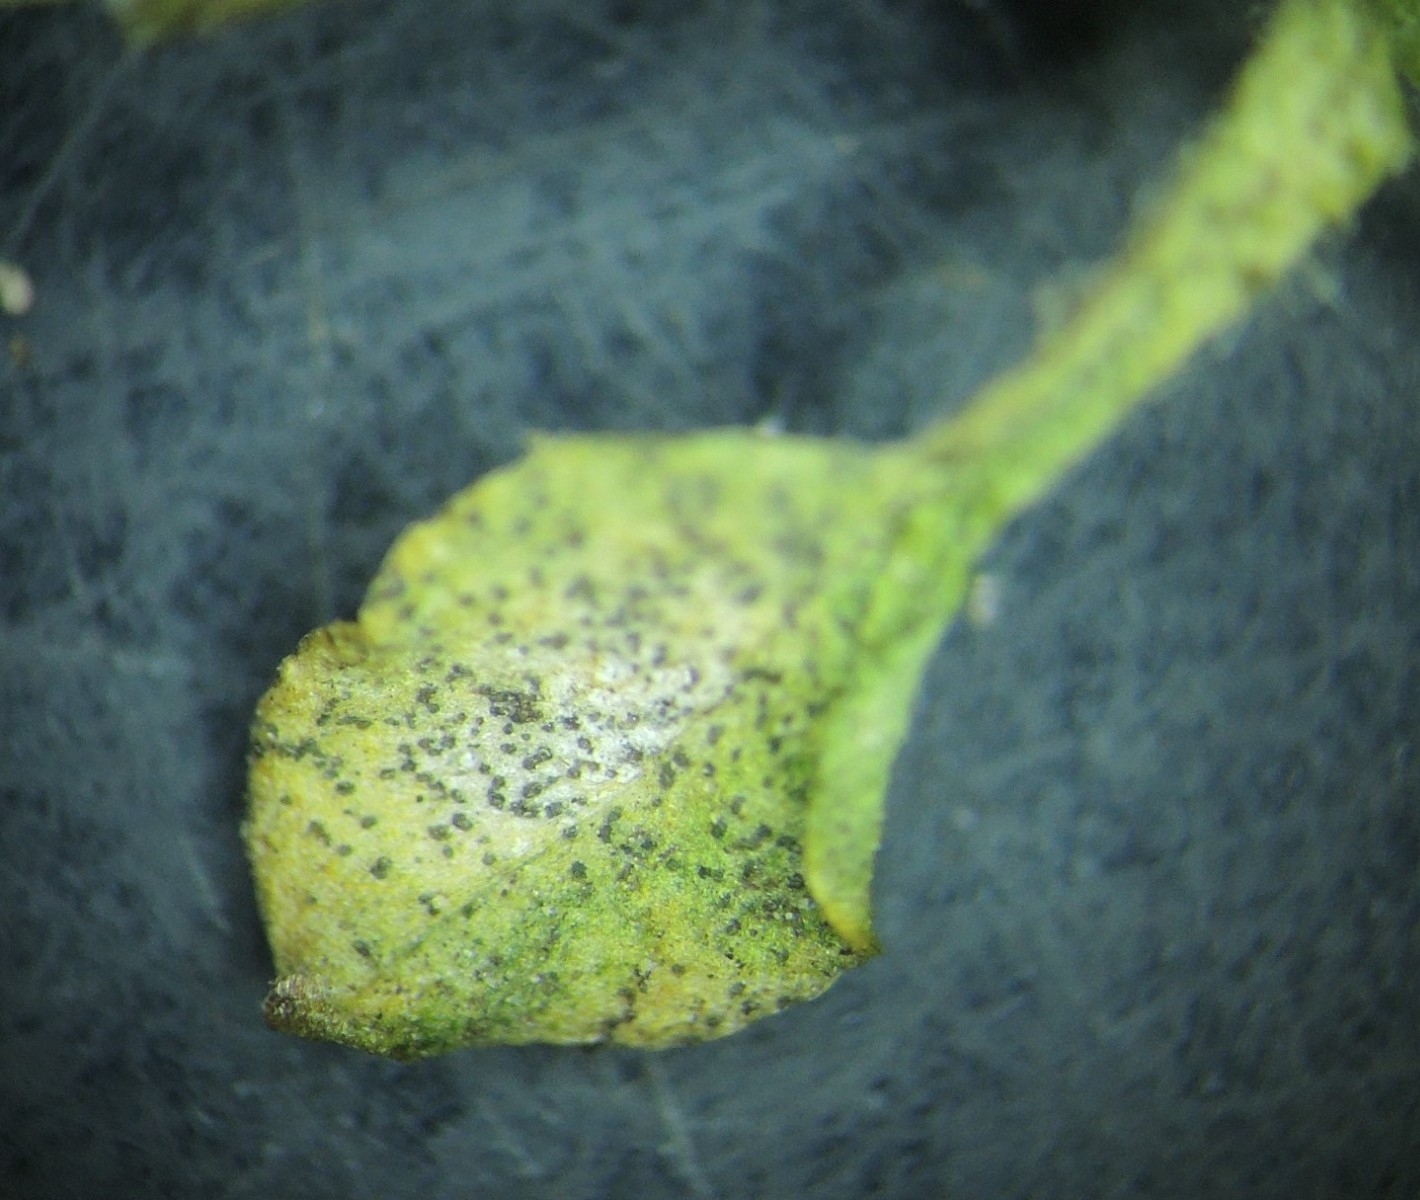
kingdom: Fungi
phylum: Ascomycota
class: Dothideomycetes
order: Mycosphaerellales
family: Mycosphaerellaceae
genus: Septoria
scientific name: Septoria stellariae
